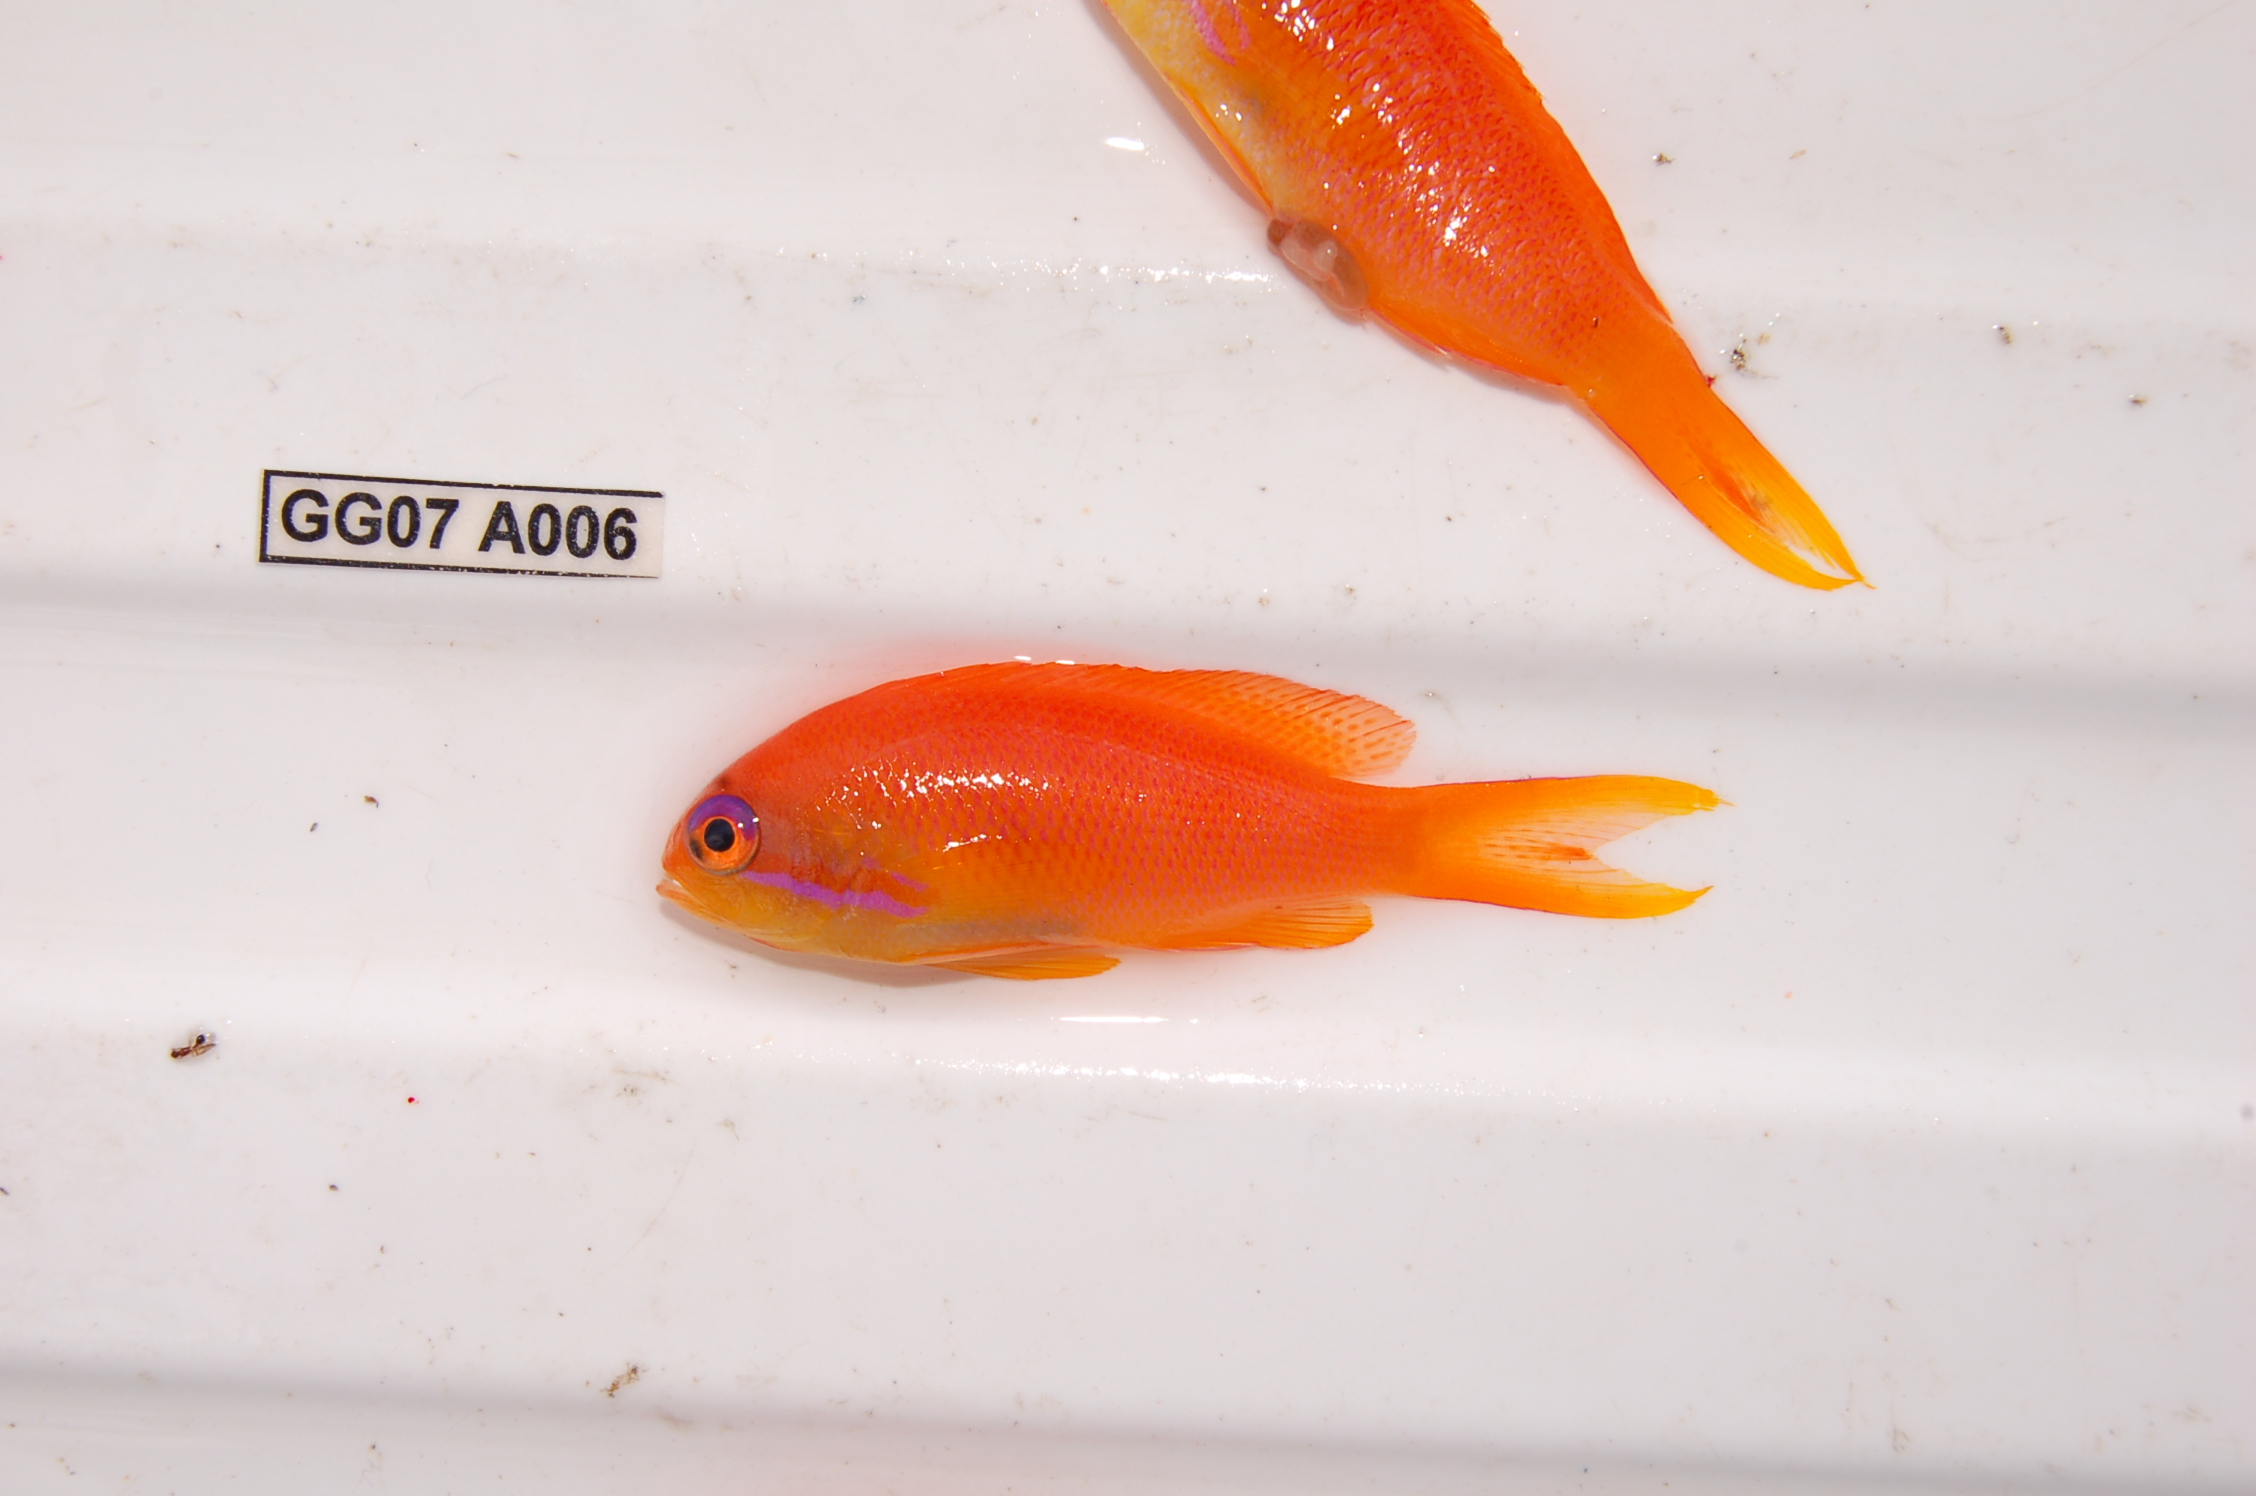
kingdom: Animalia
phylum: Chordata
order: Perciformes
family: Serranidae
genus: Pseudanthias
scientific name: Pseudanthias squamipinnis
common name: Scalefin anthias
